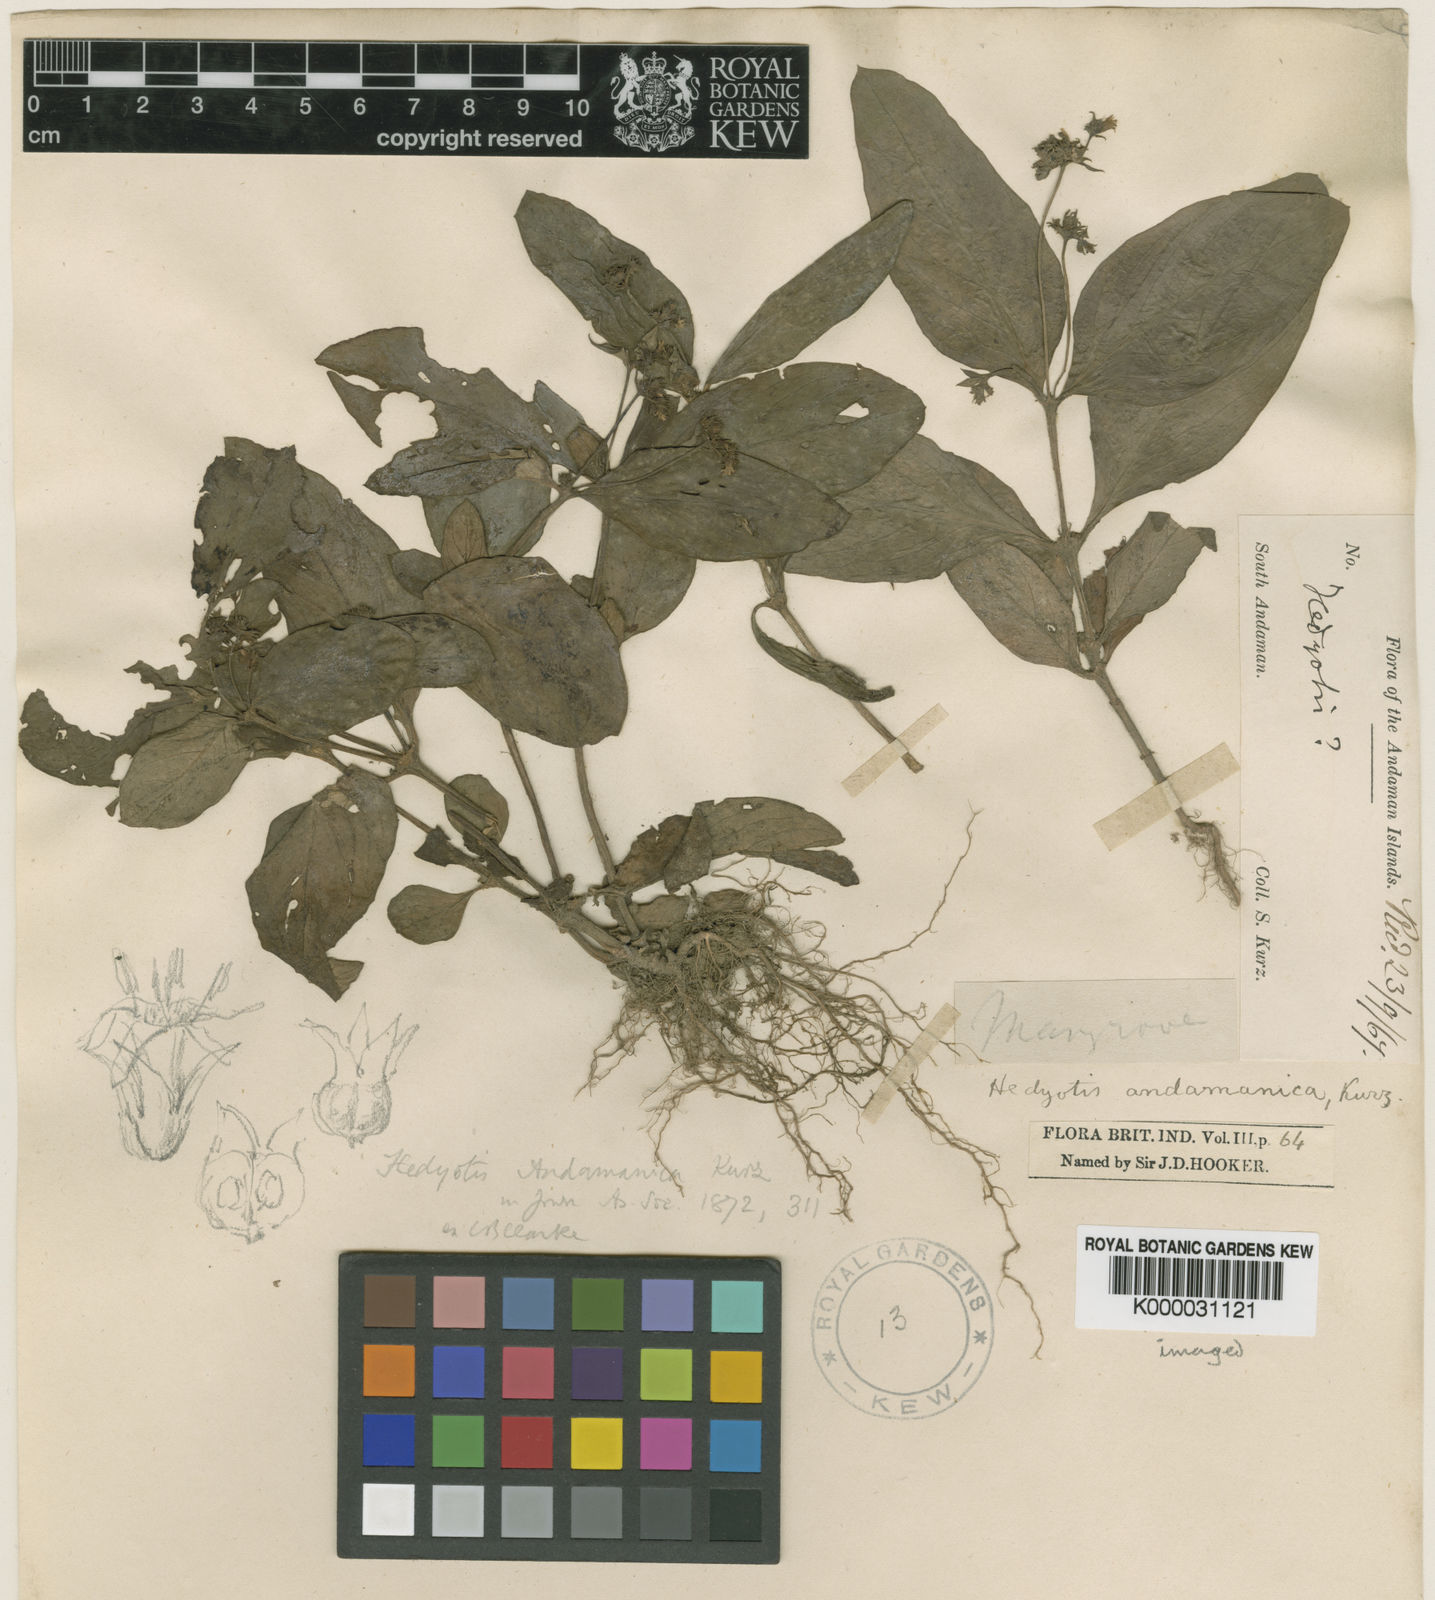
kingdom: Plantae
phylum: Tracheophyta
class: Magnoliopsida
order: Gentianales
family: Rubiaceae
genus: Debia
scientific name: Debia andamanica
